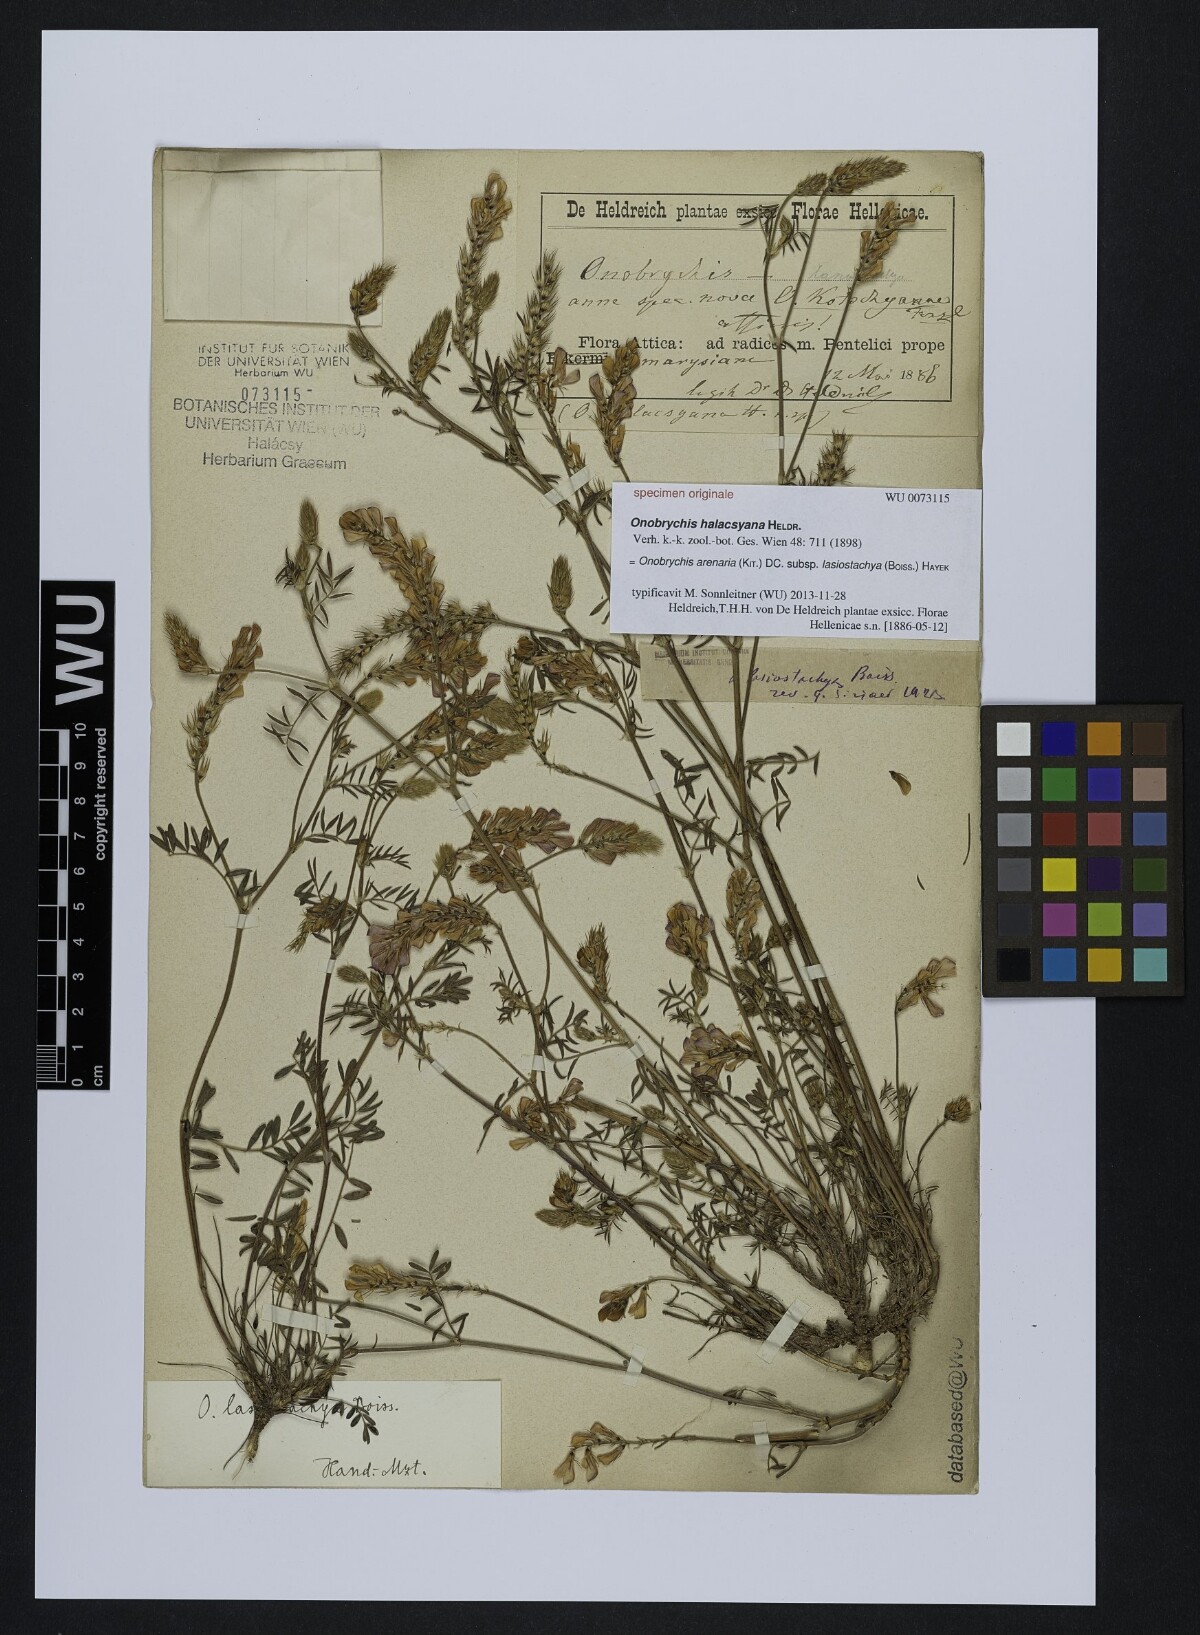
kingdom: Plantae
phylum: Tracheophyta
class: Magnoliopsida
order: Fabales
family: Fabaceae
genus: Onobrychis
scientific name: Onobrychis montana
